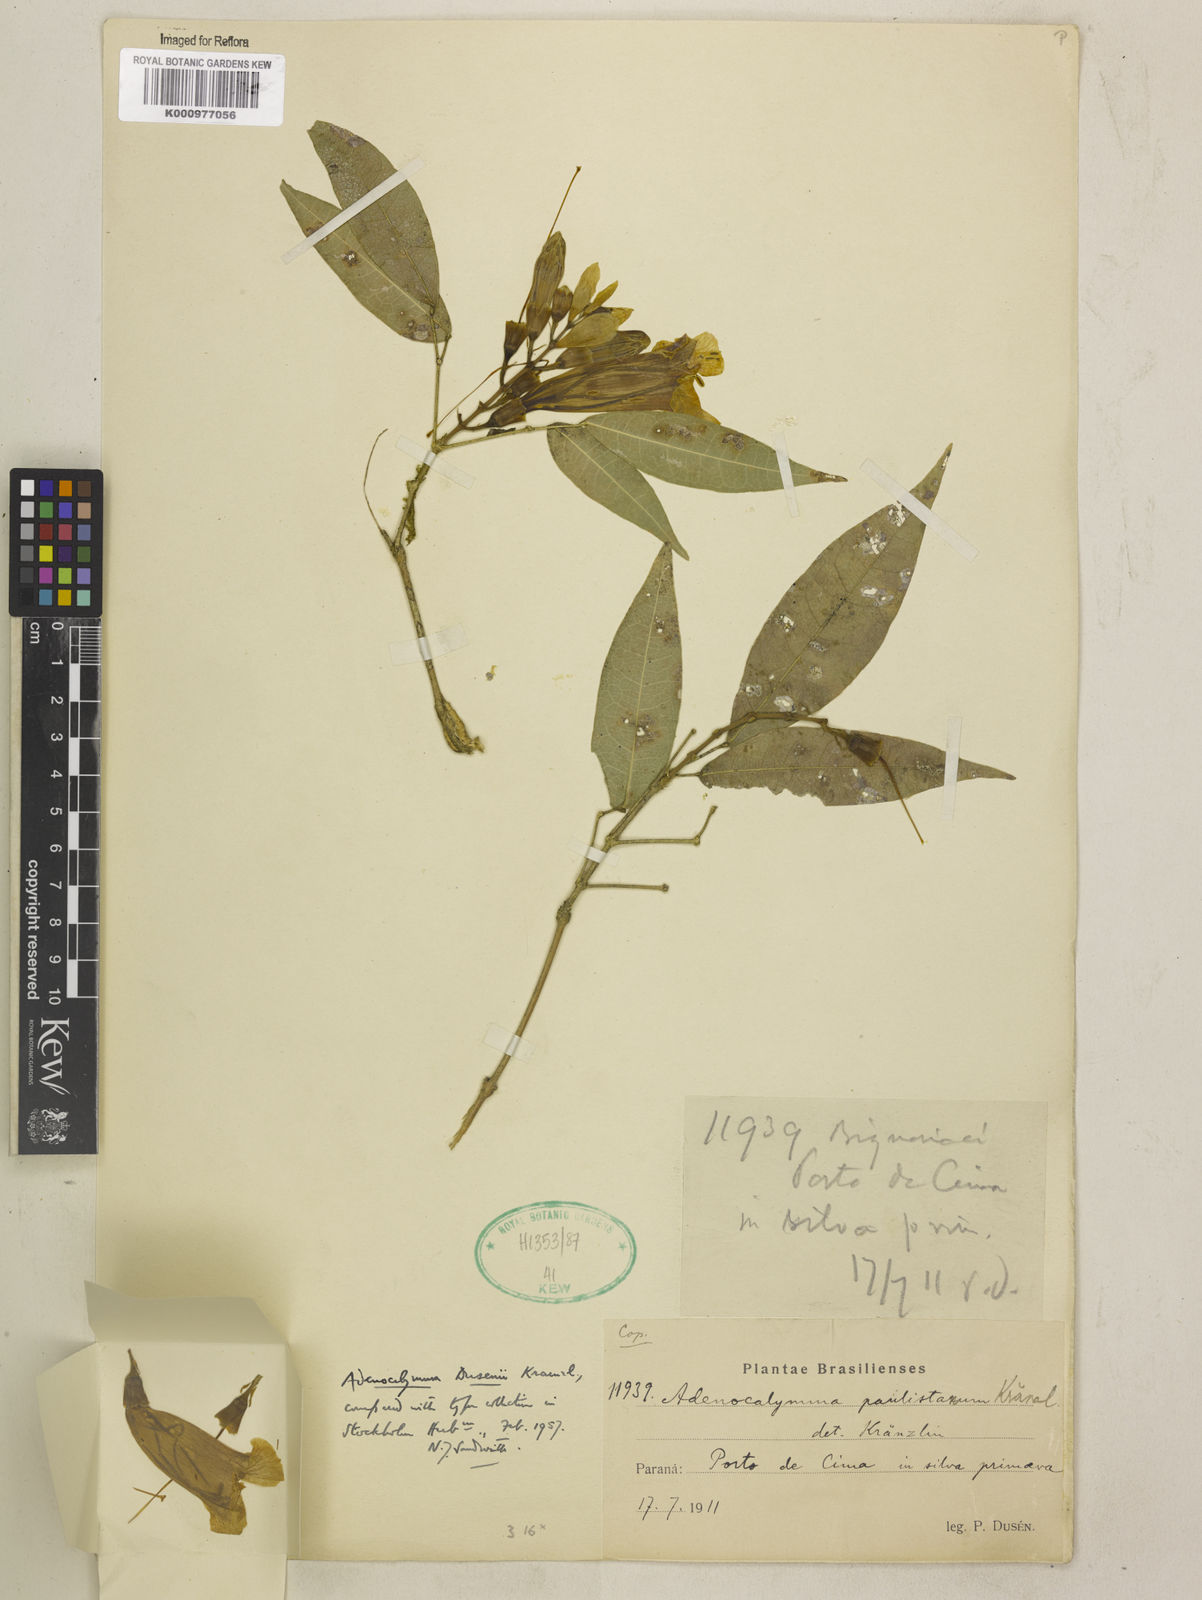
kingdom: Plantae
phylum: Tracheophyta
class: Magnoliopsida
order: Lamiales
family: Bignoniaceae
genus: Adenocalymma
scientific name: Adenocalymma dusenii
